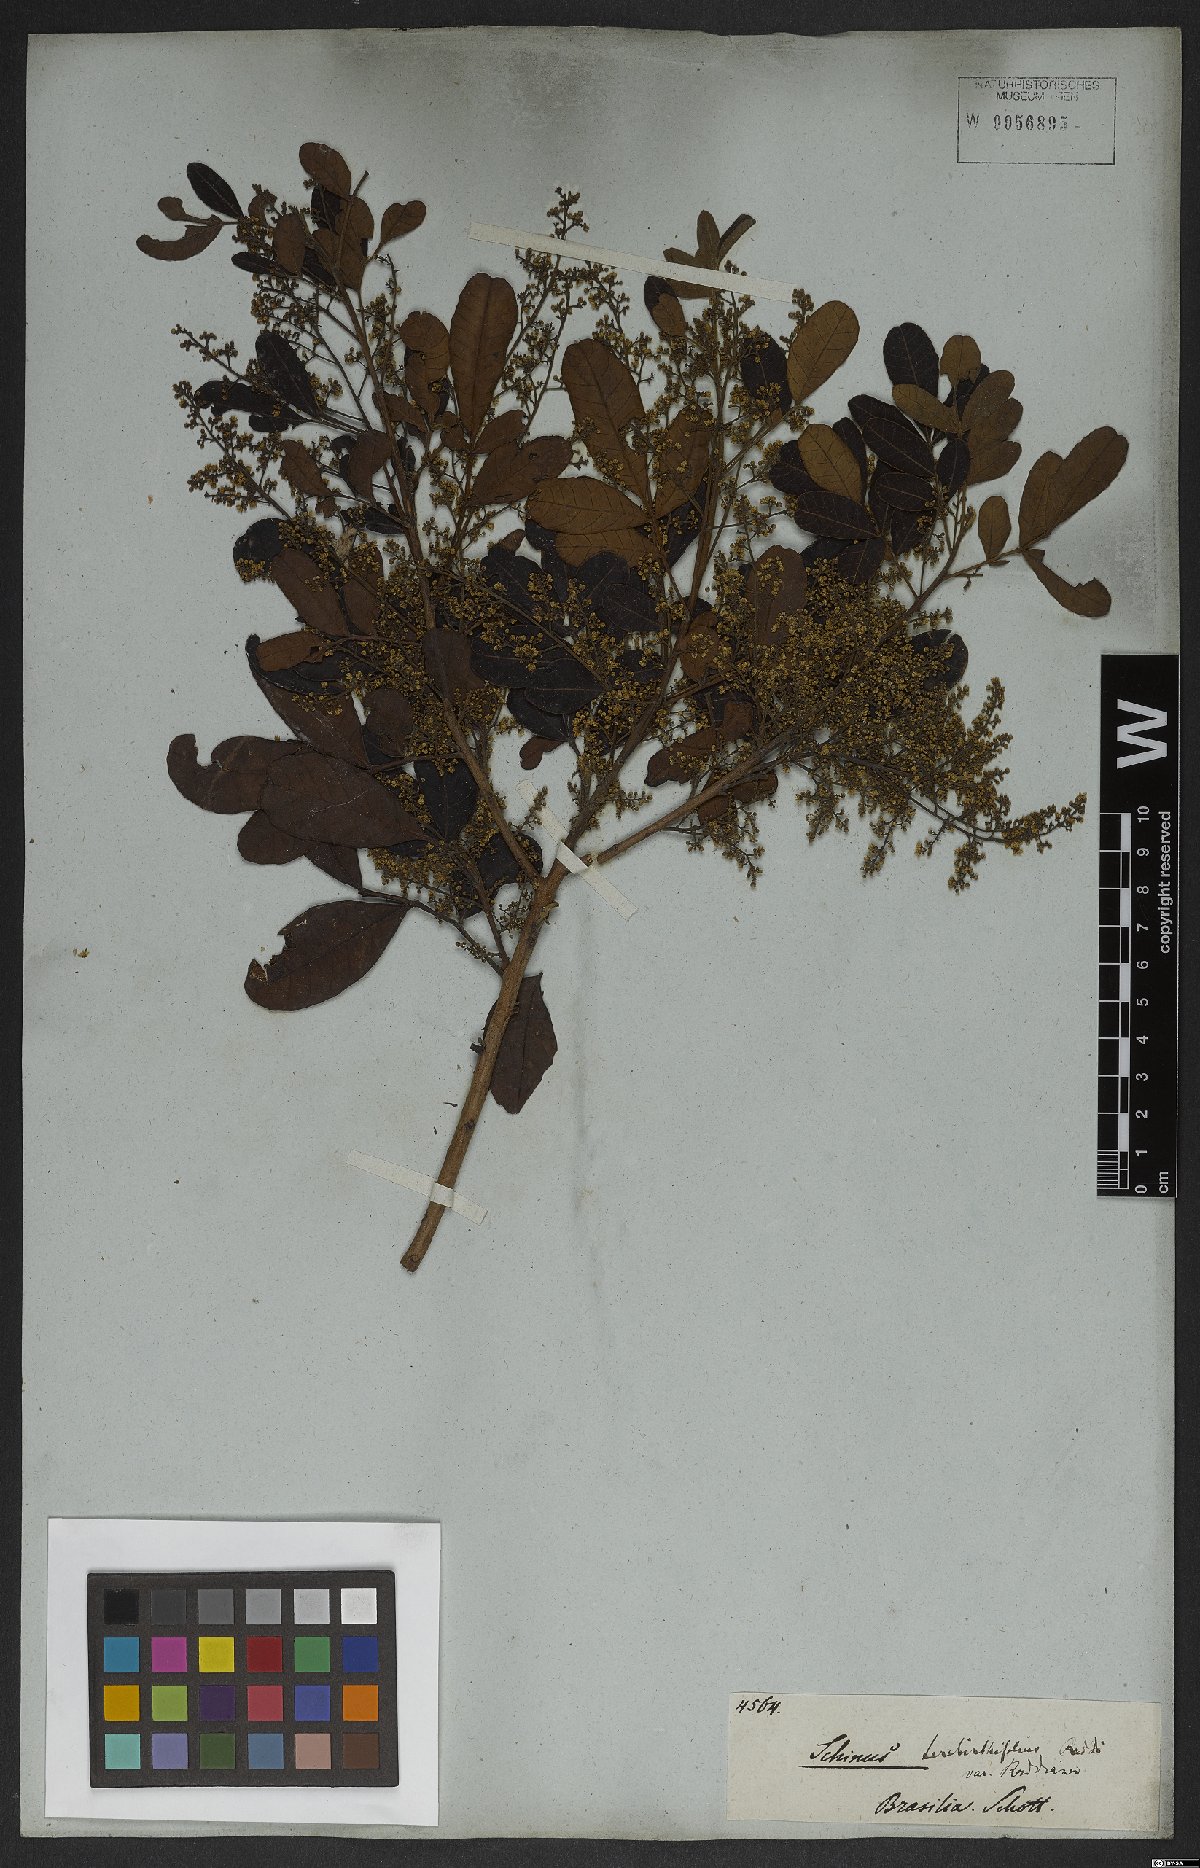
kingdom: Plantae
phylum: Tracheophyta
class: Magnoliopsida
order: Gentianales
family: Apocynaceae
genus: Tabernaemontana
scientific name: Tabernaemontana salzmannii
